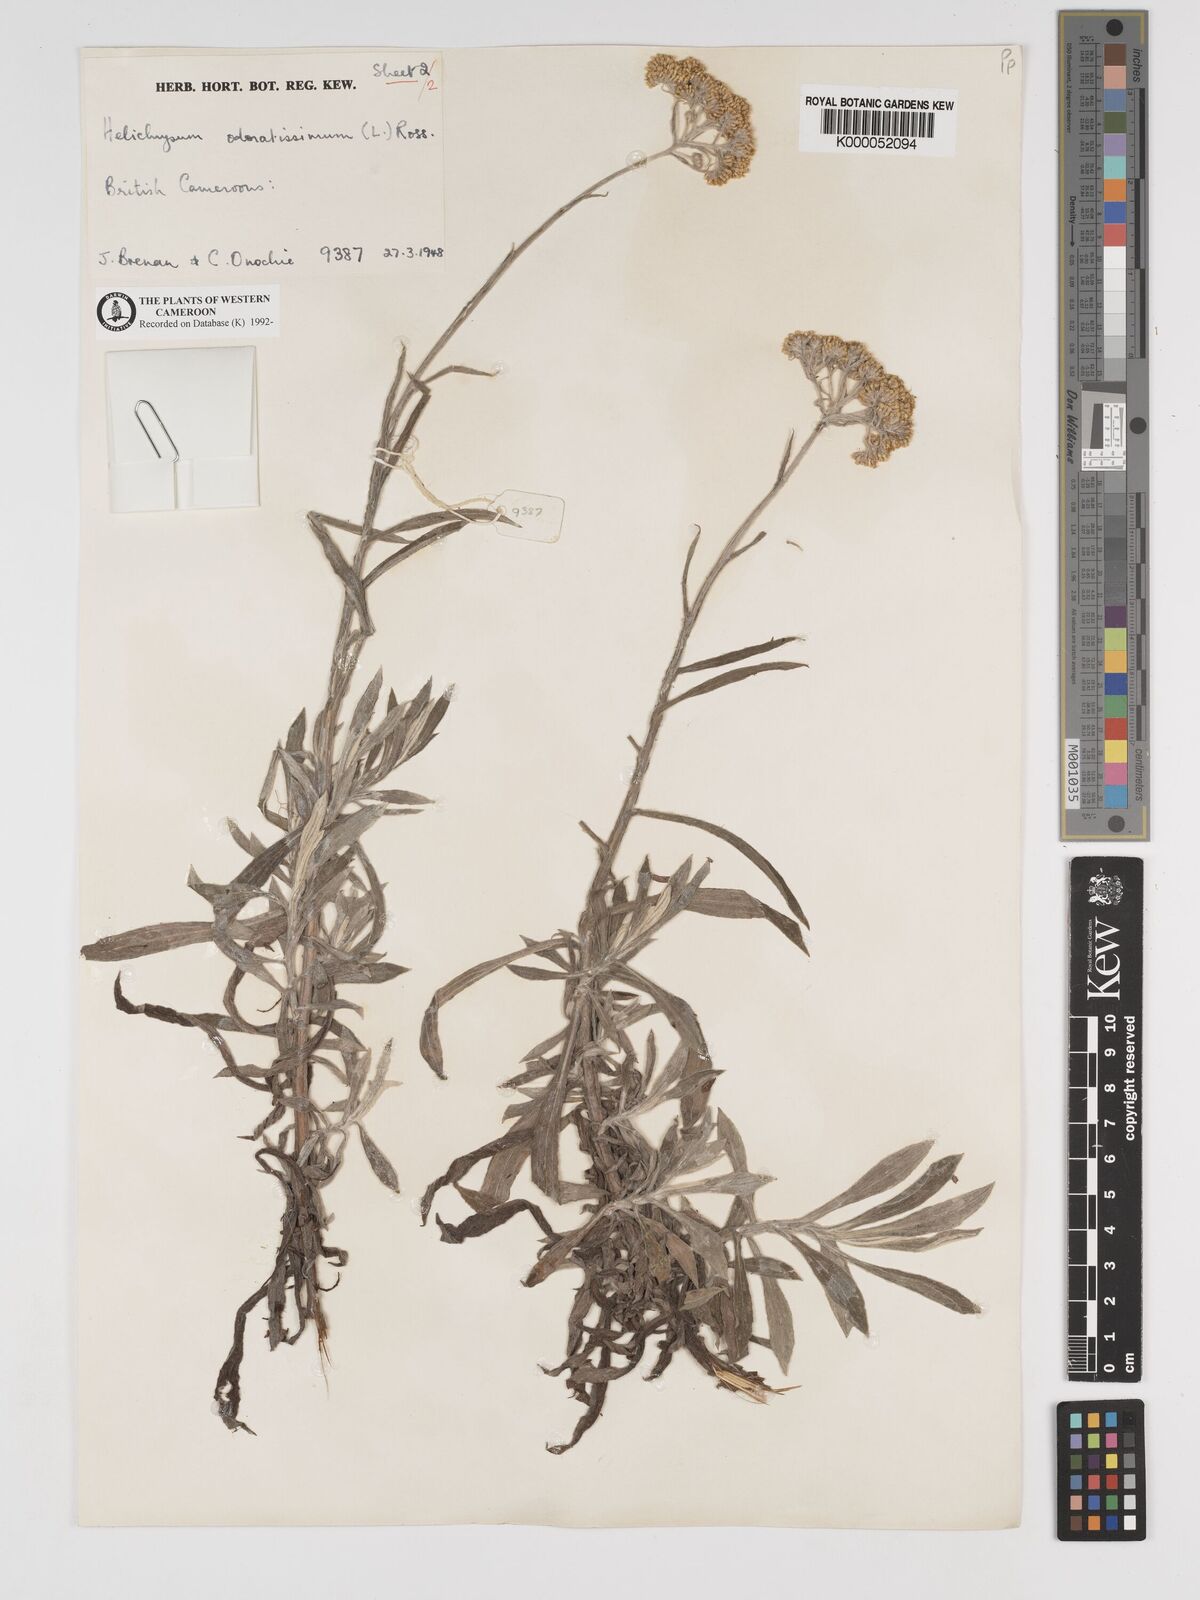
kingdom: Plantae
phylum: Tracheophyta
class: Magnoliopsida
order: Asterales
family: Asteraceae
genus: Helichrysum
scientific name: Helichrysum odoratissimum
